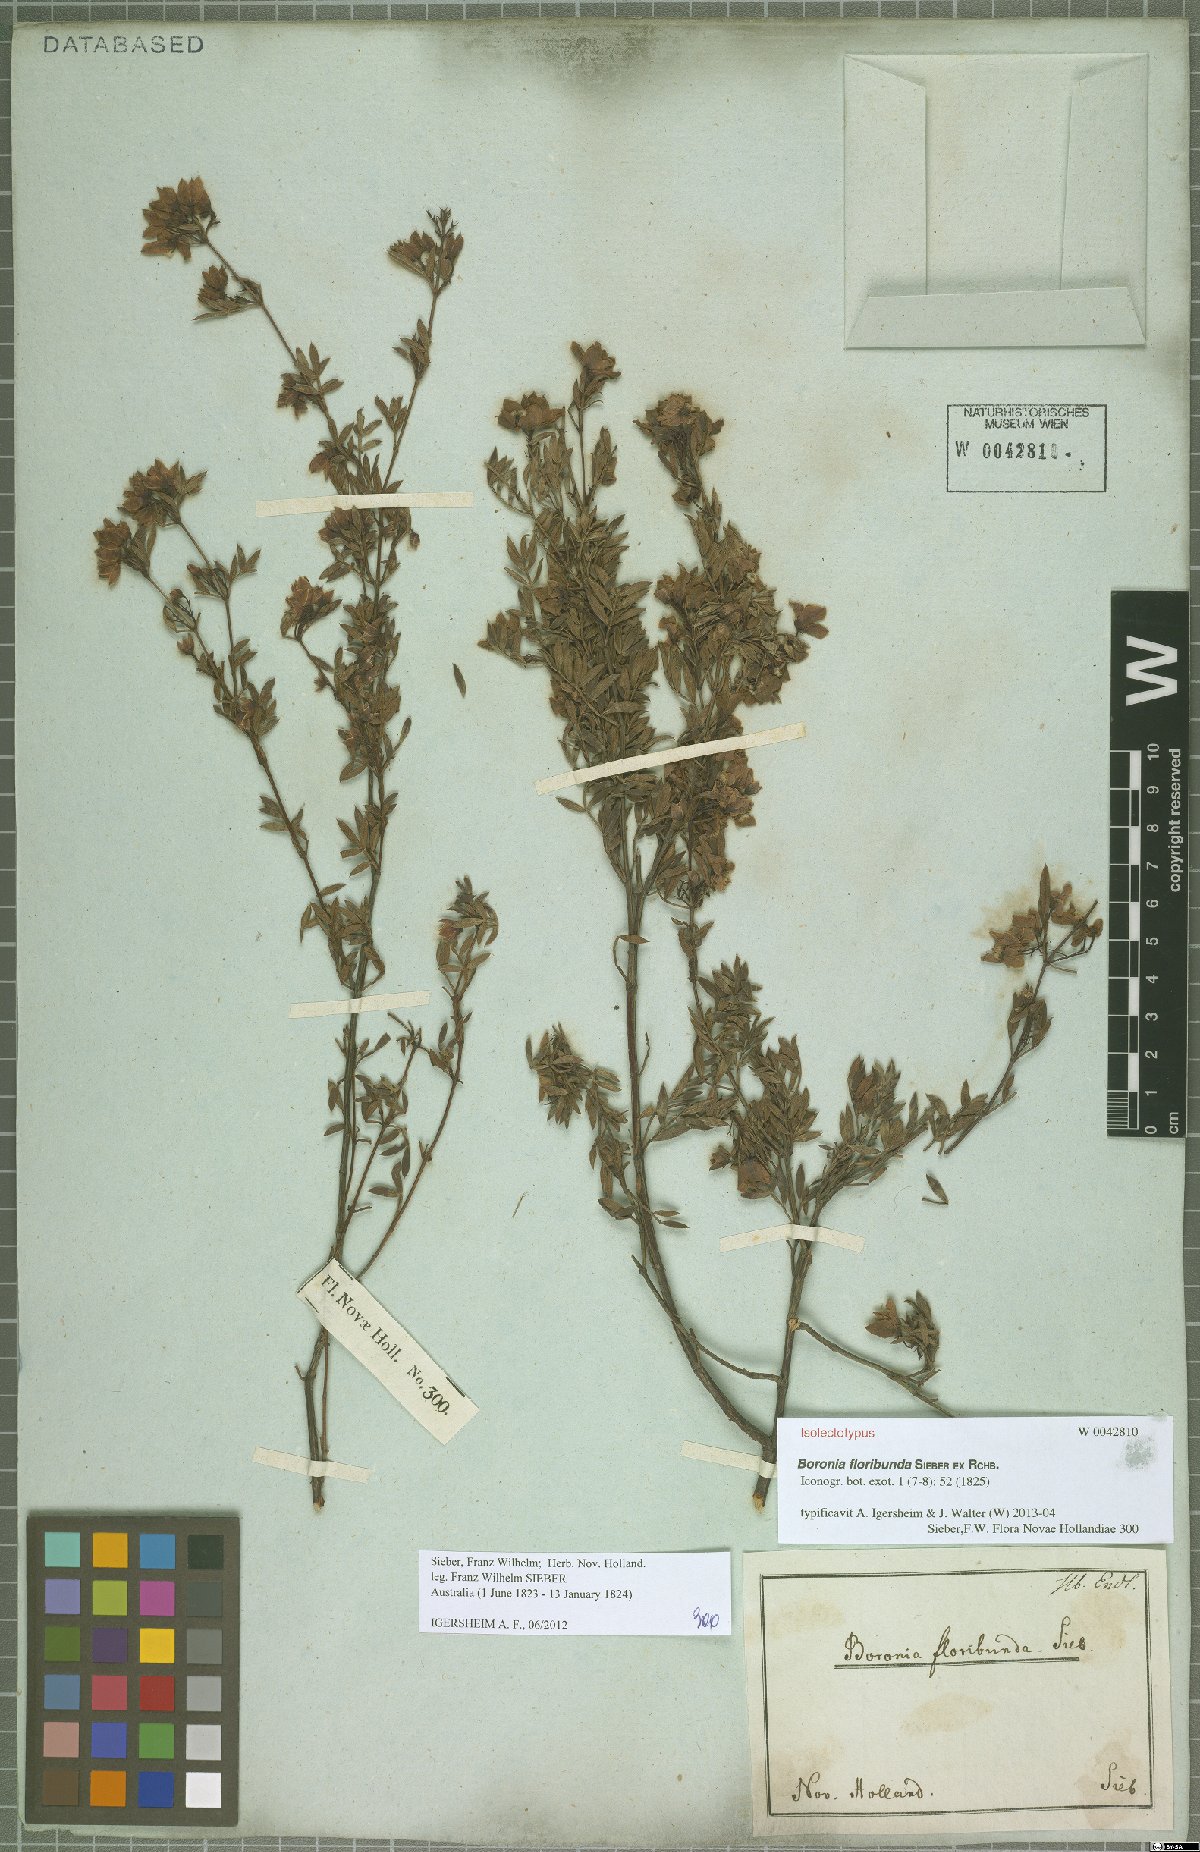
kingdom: Plantae
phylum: Tracheophyta
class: Magnoliopsida
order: Sapindales
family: Rutaceae
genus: Boronia
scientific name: Boronia floribunda
